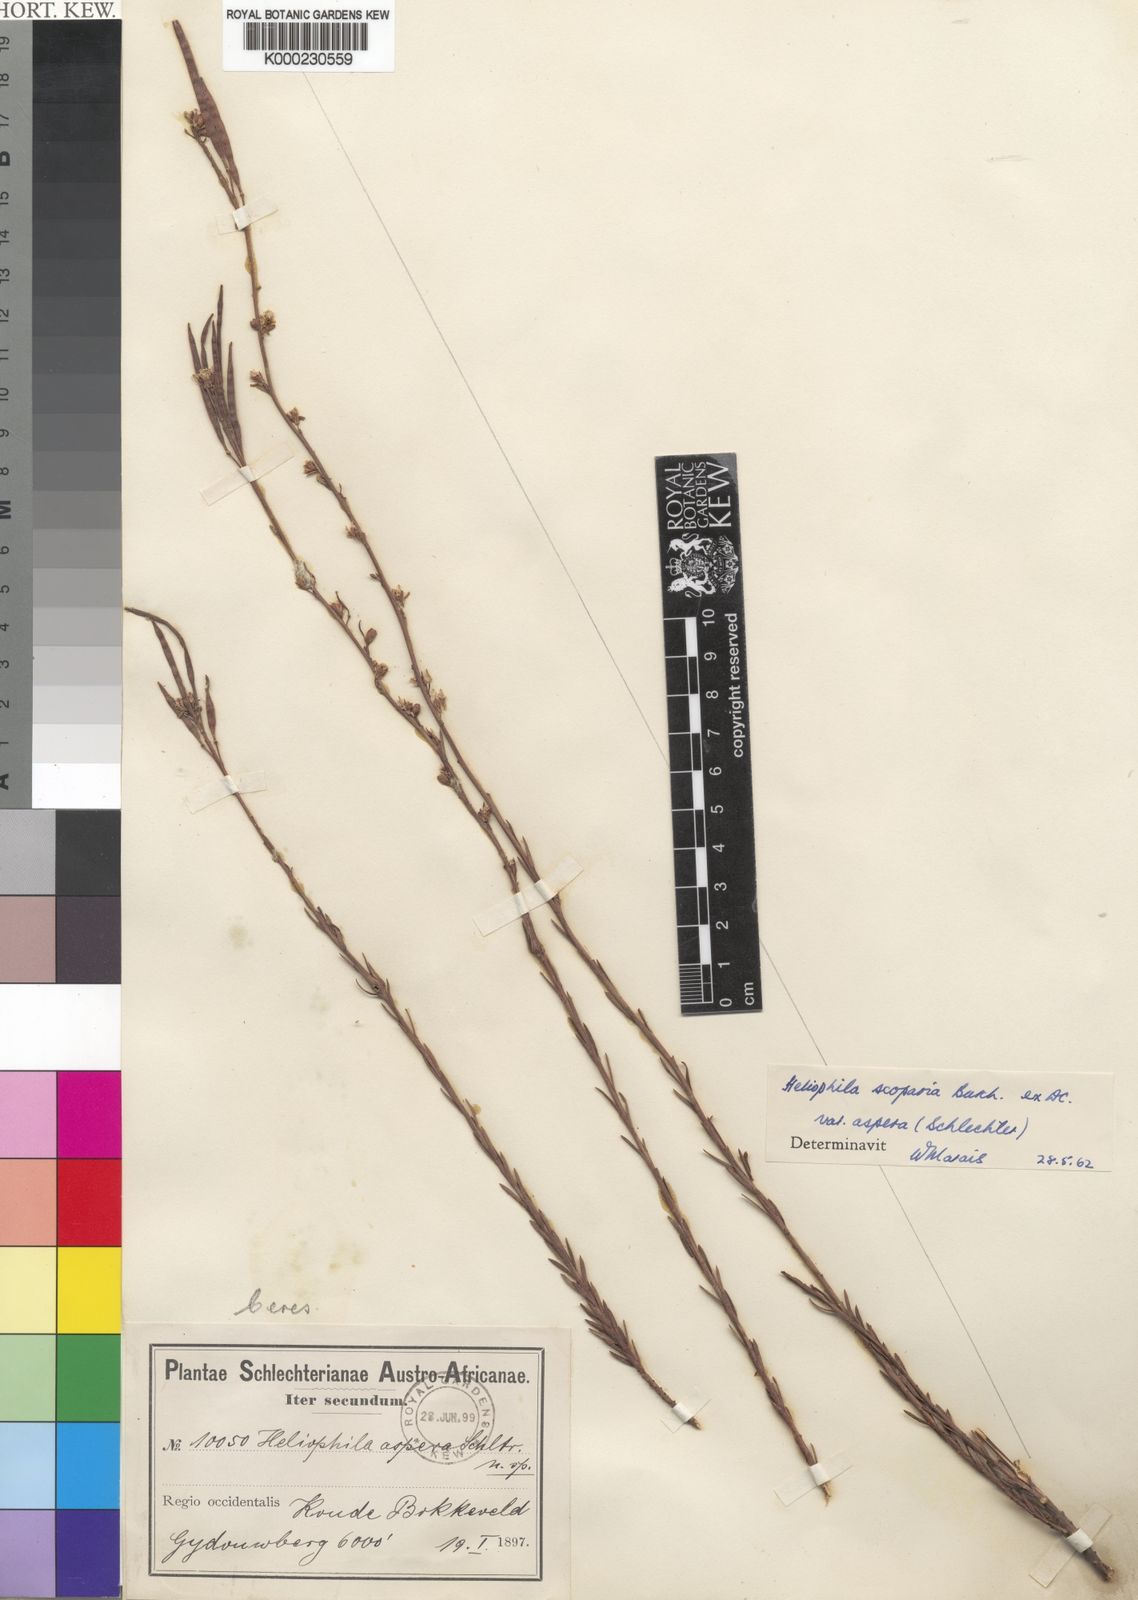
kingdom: Plantae
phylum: Tracheophyta
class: Magnoliopsida
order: Brassicales
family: Brassicaceae
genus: Heliophila
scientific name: Heliophila scoparia
